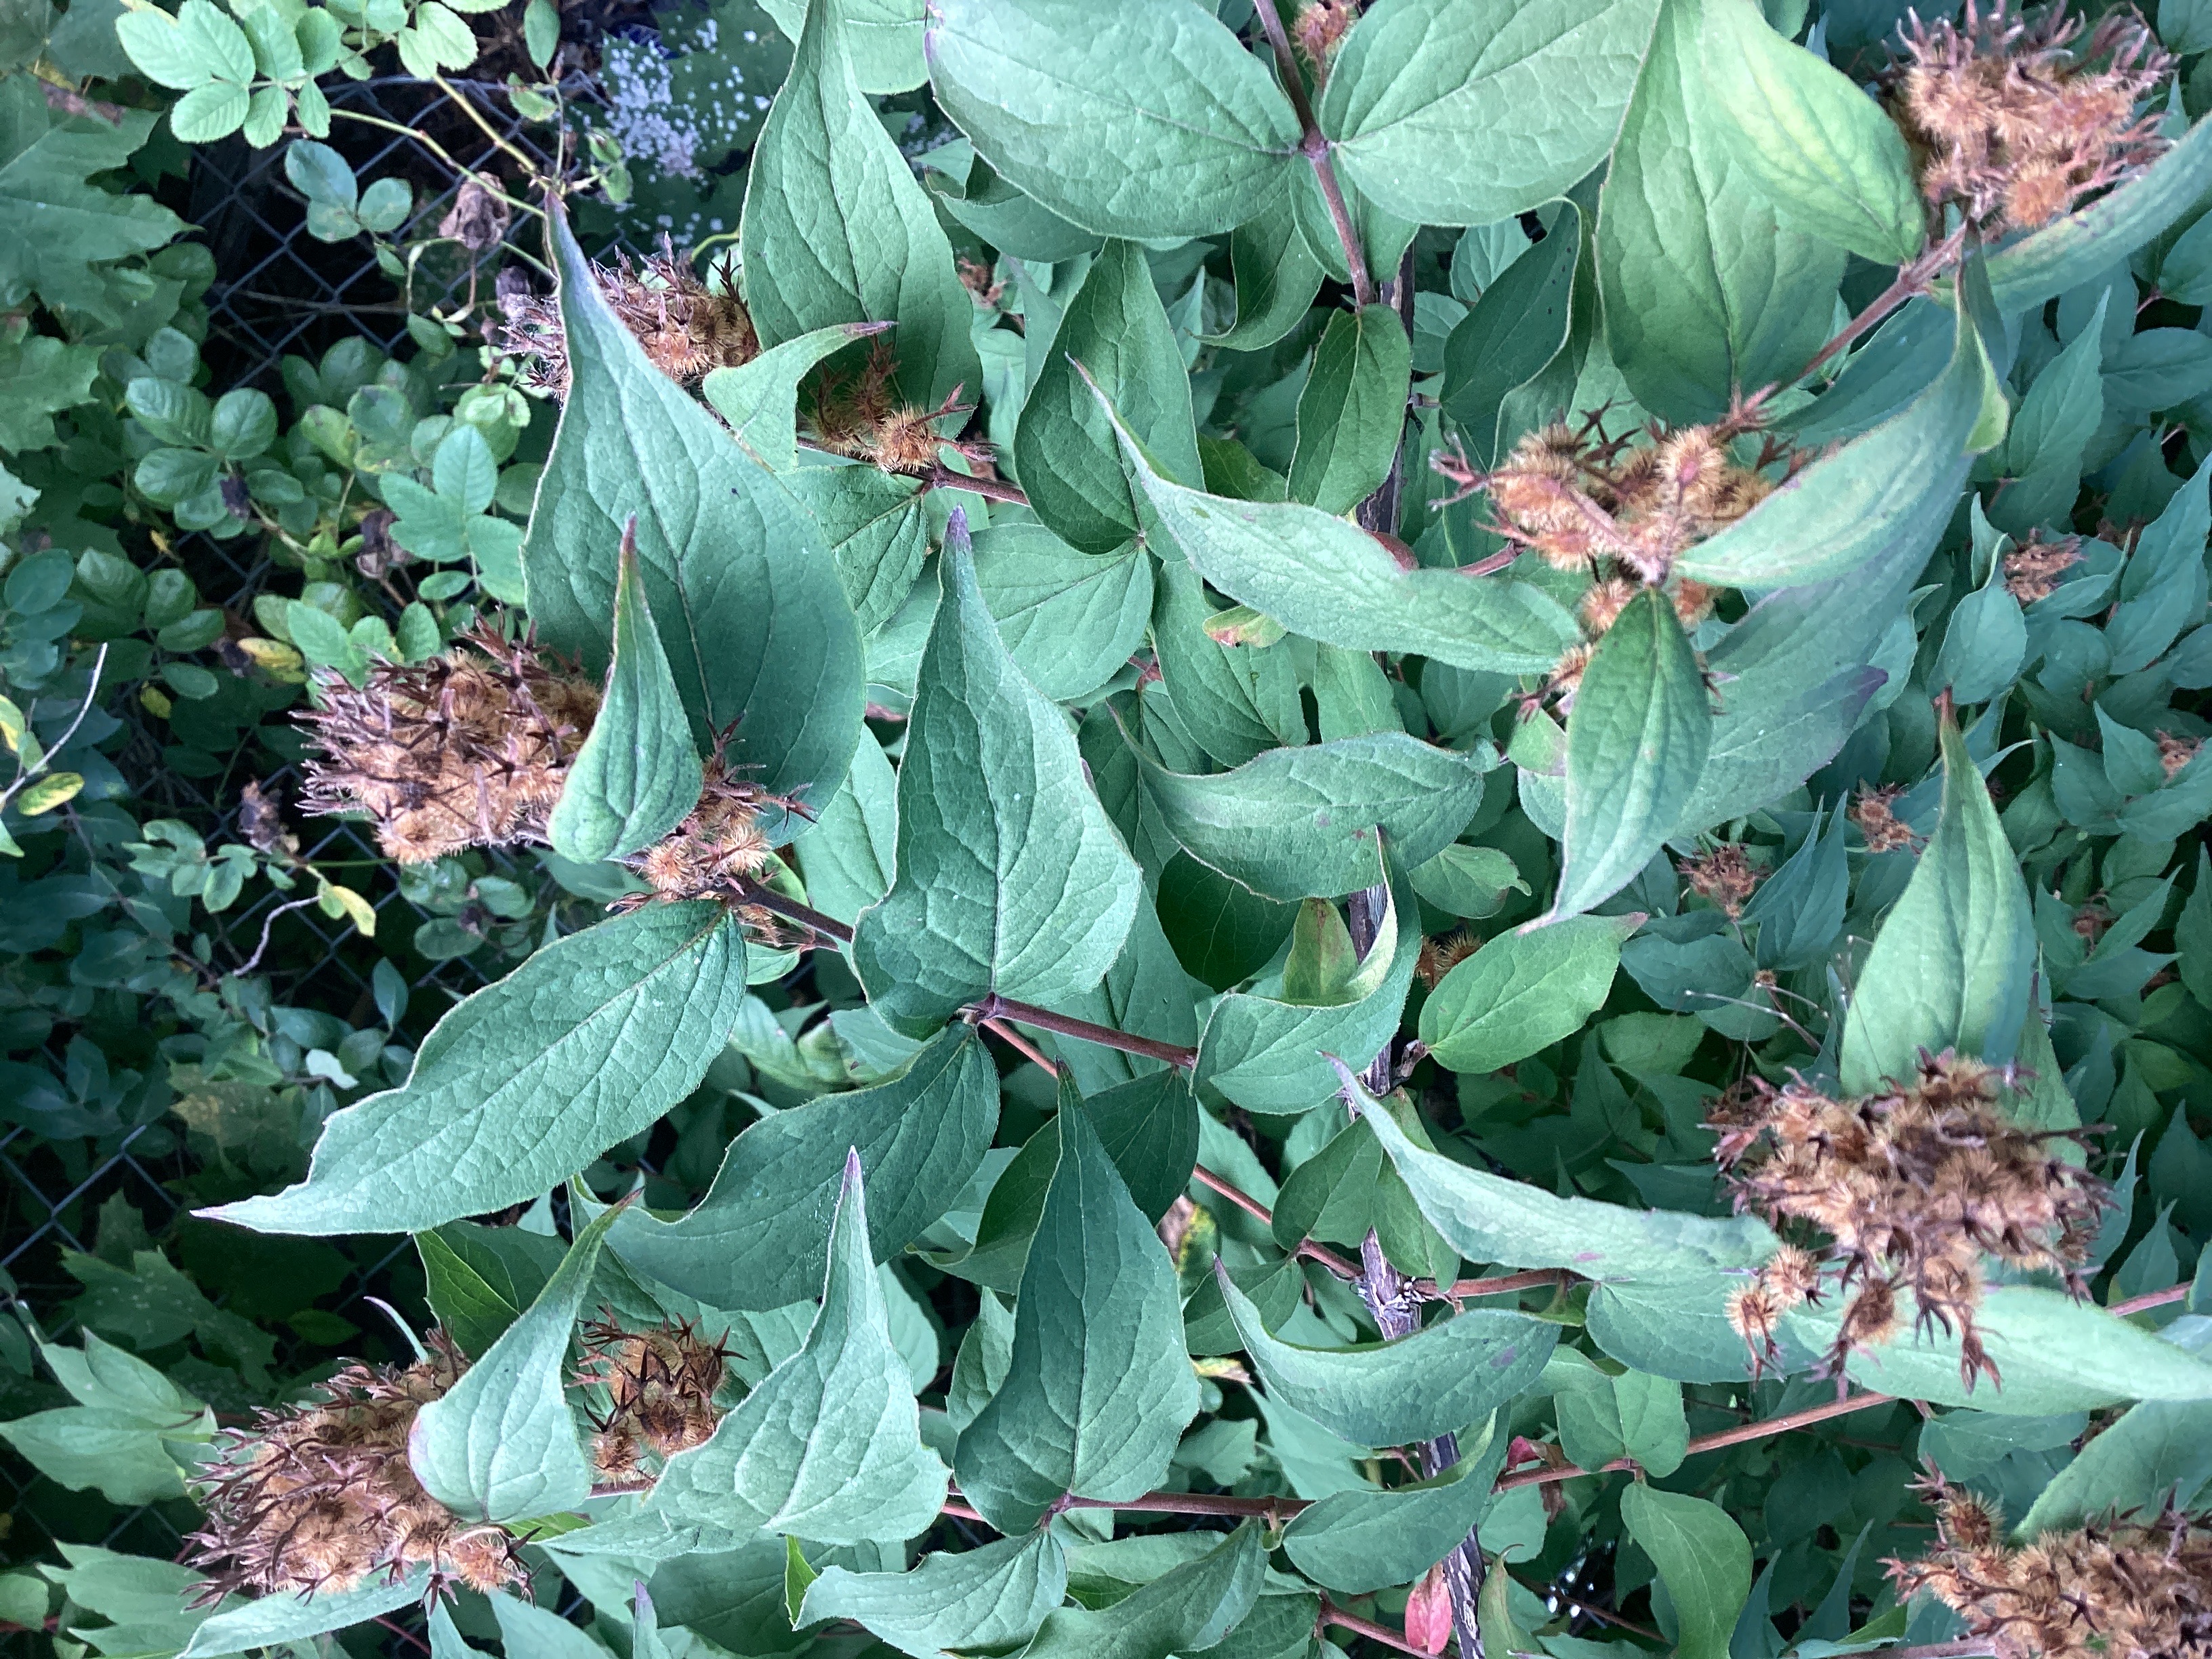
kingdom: Plantae
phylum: Tracheophyta
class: Magnoliopsida
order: Dipsacales
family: Caprifoliaceae
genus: Kolkwitzia
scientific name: Kolkwitzia amabilis
